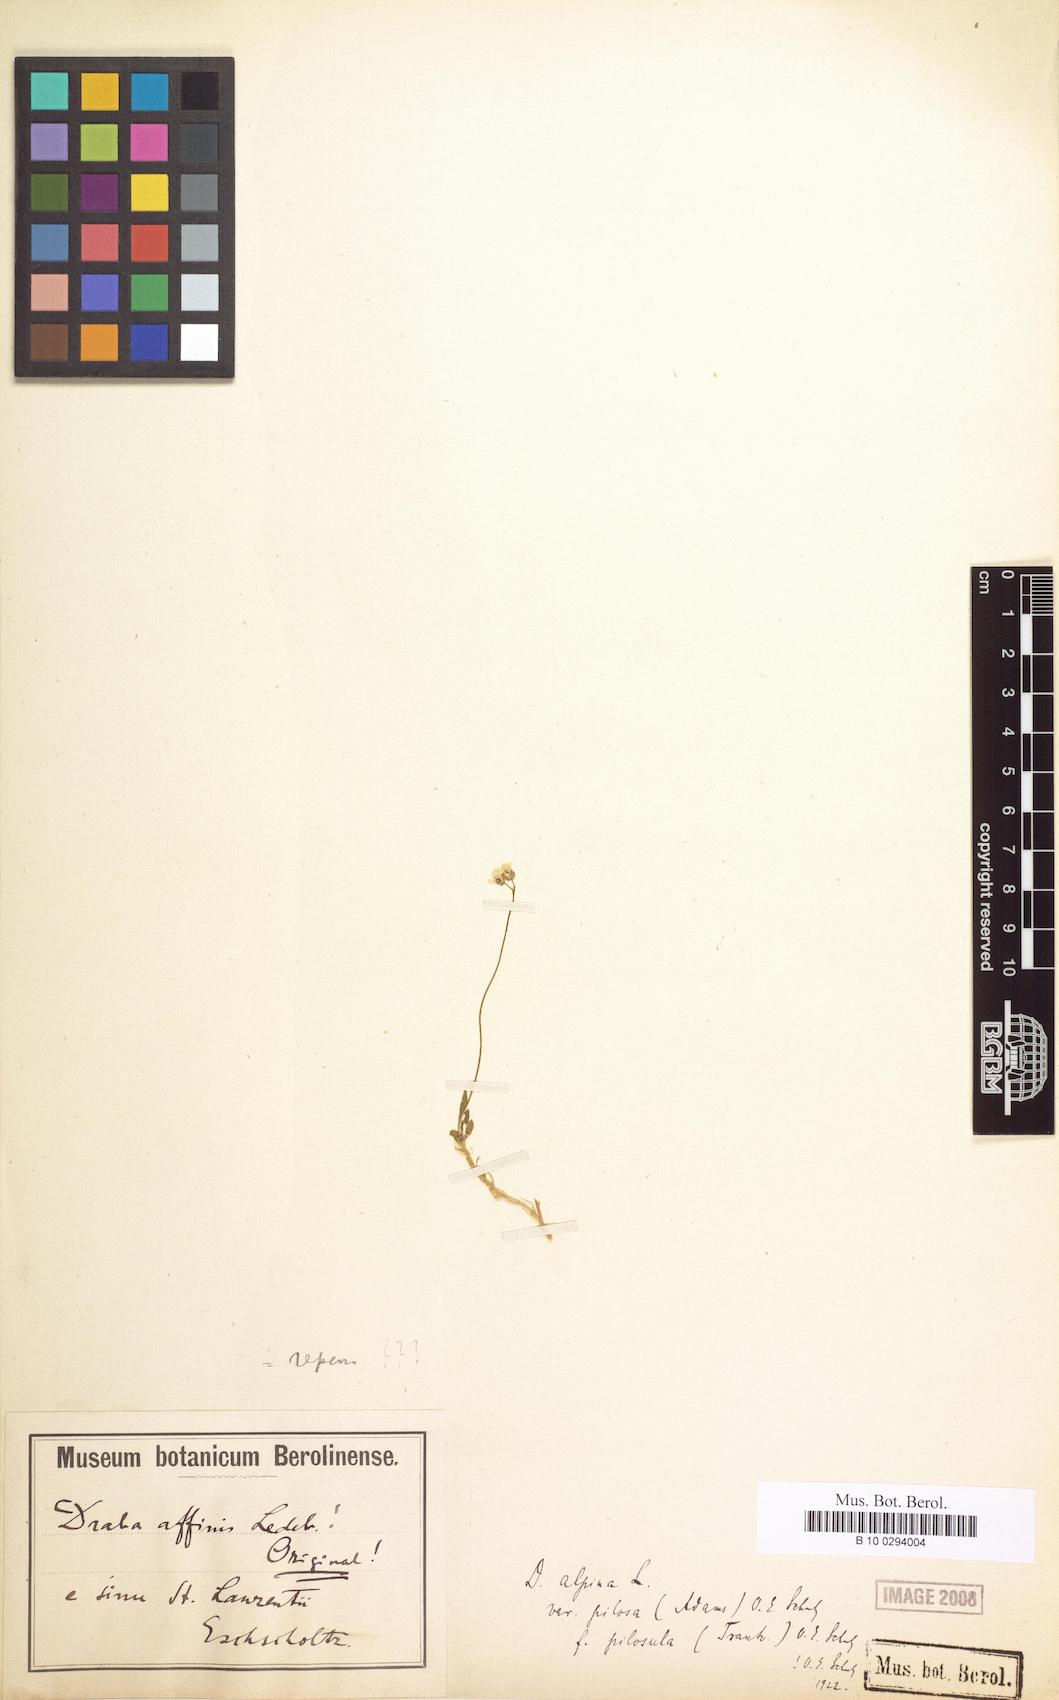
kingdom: Plantae
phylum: Tracheophyta
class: Magnoliopsida
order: Brassicales
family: Brassicaceae
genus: Draba
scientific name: Draba pilosa
